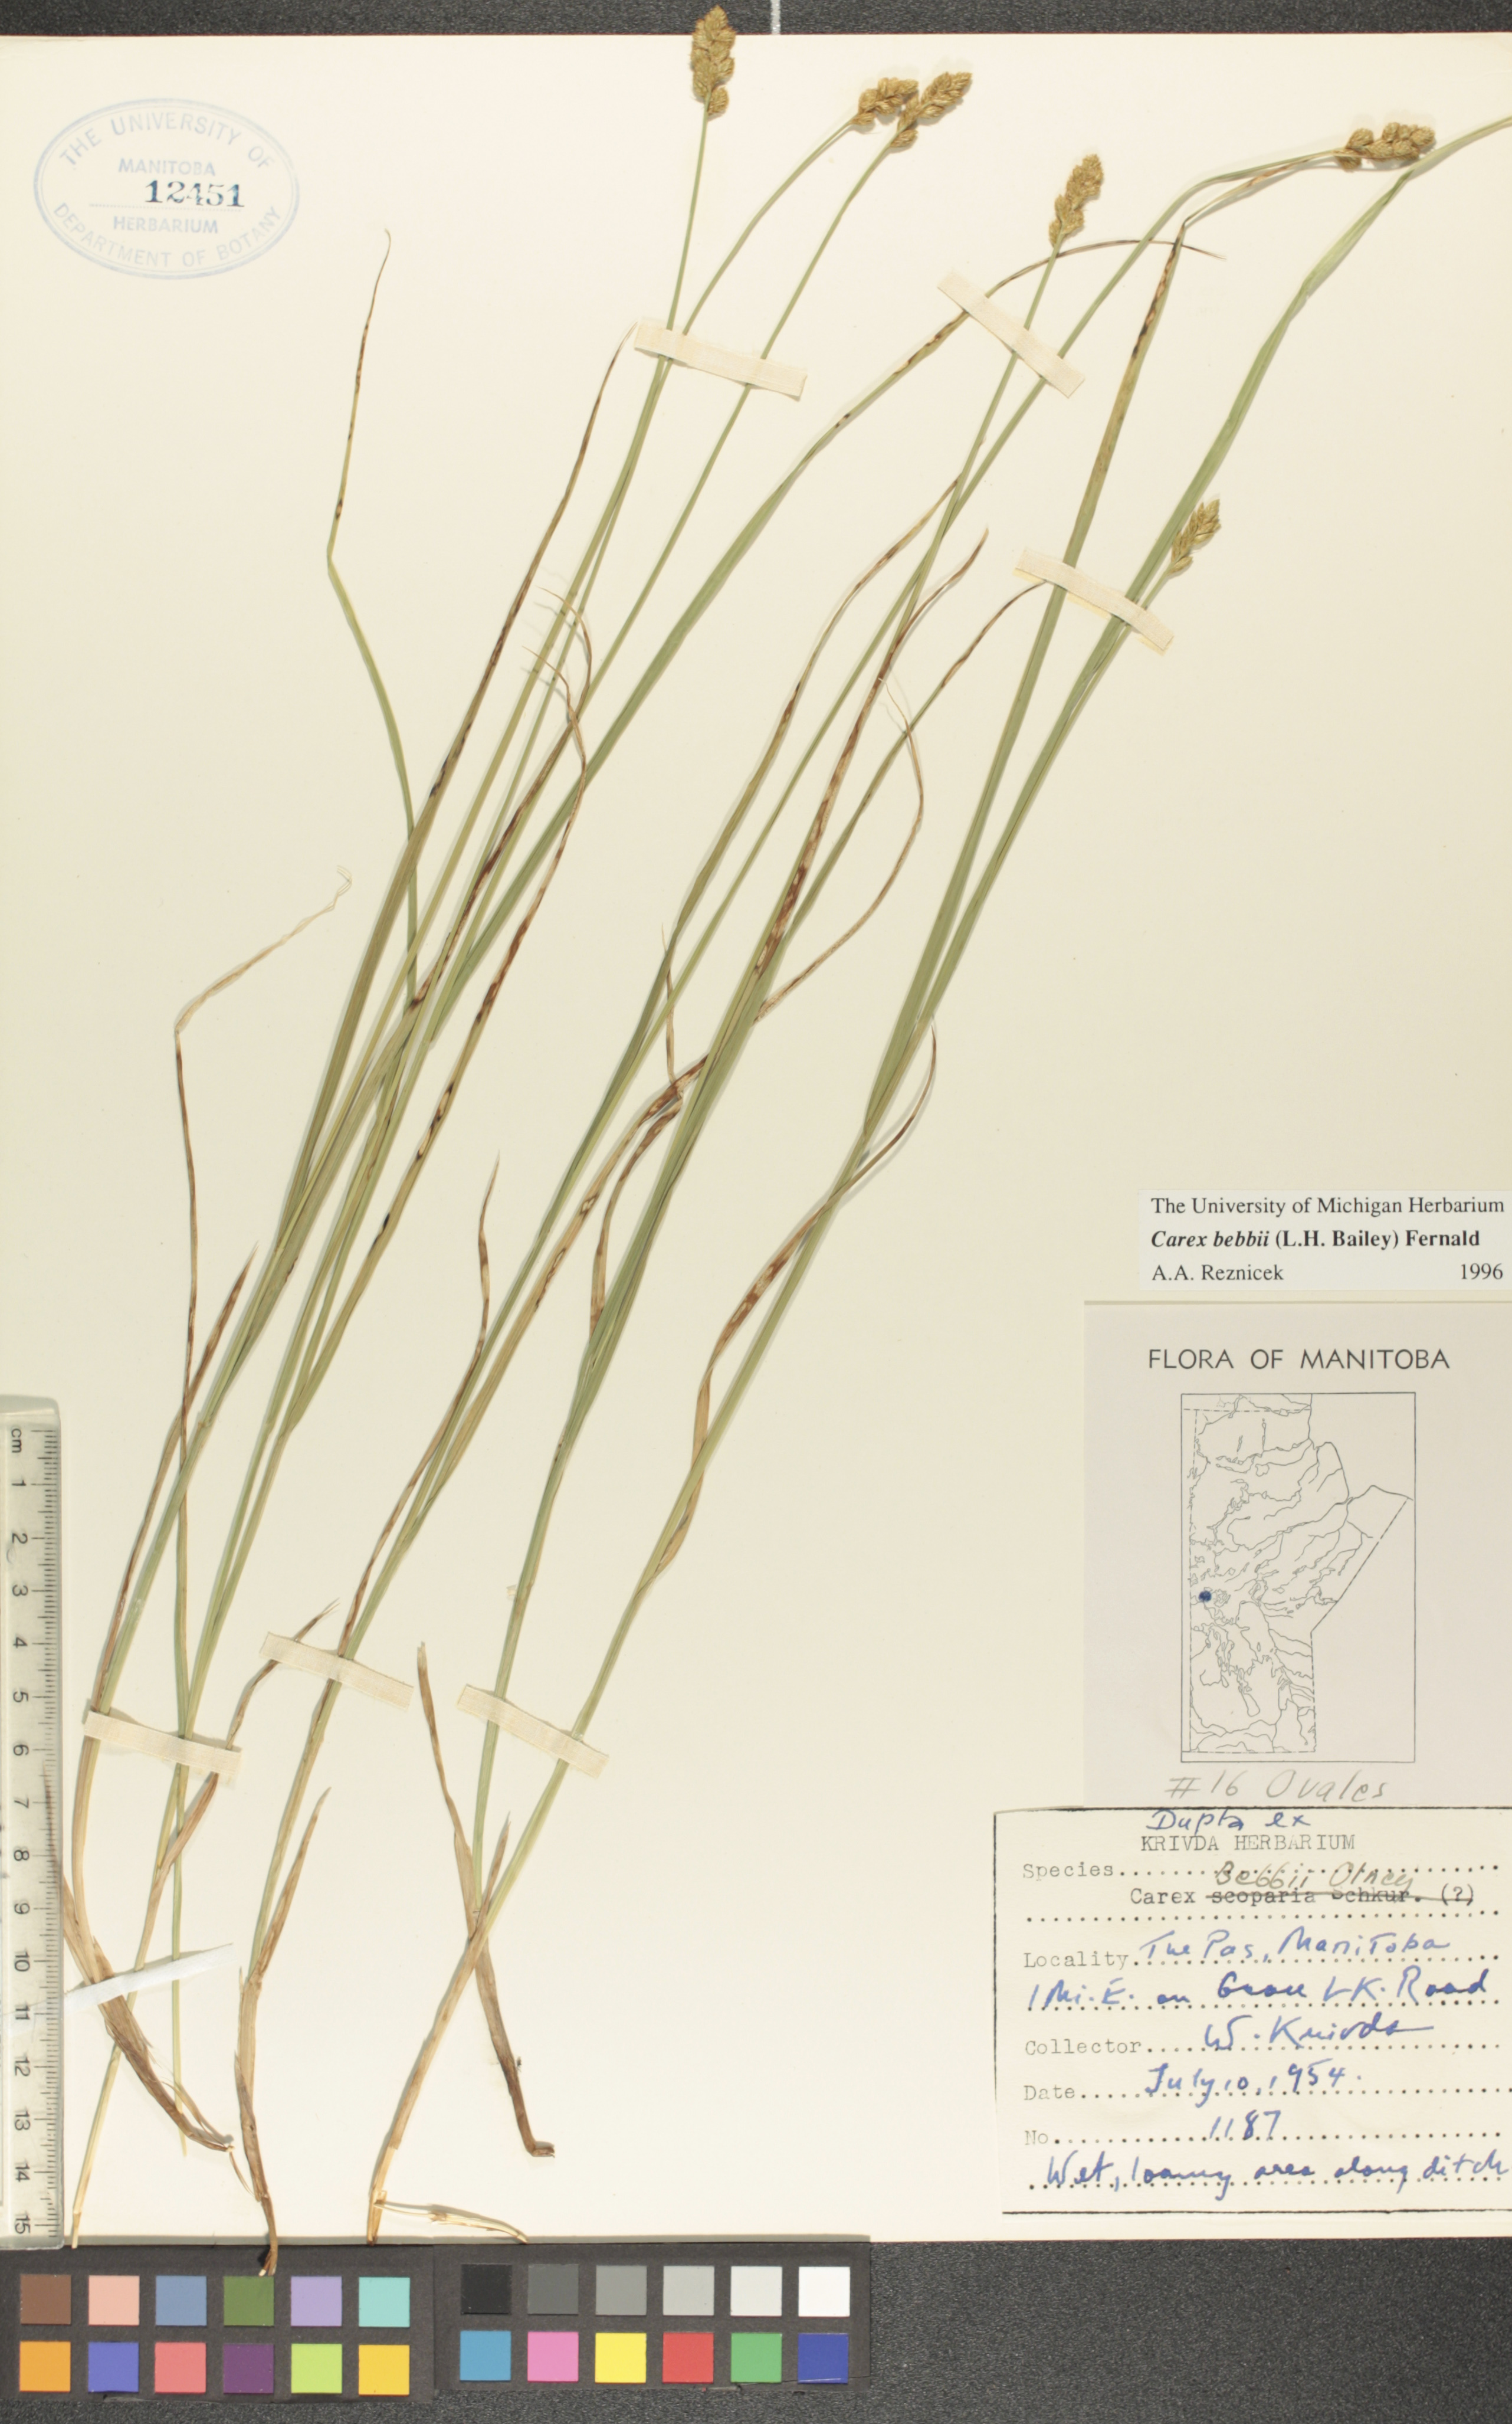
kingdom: Plantae
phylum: Tracheophyta
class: Liliopsida
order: Poales
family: Cyperaceae
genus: Carex
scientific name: Carex bebbii
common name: Bebb's sedge
